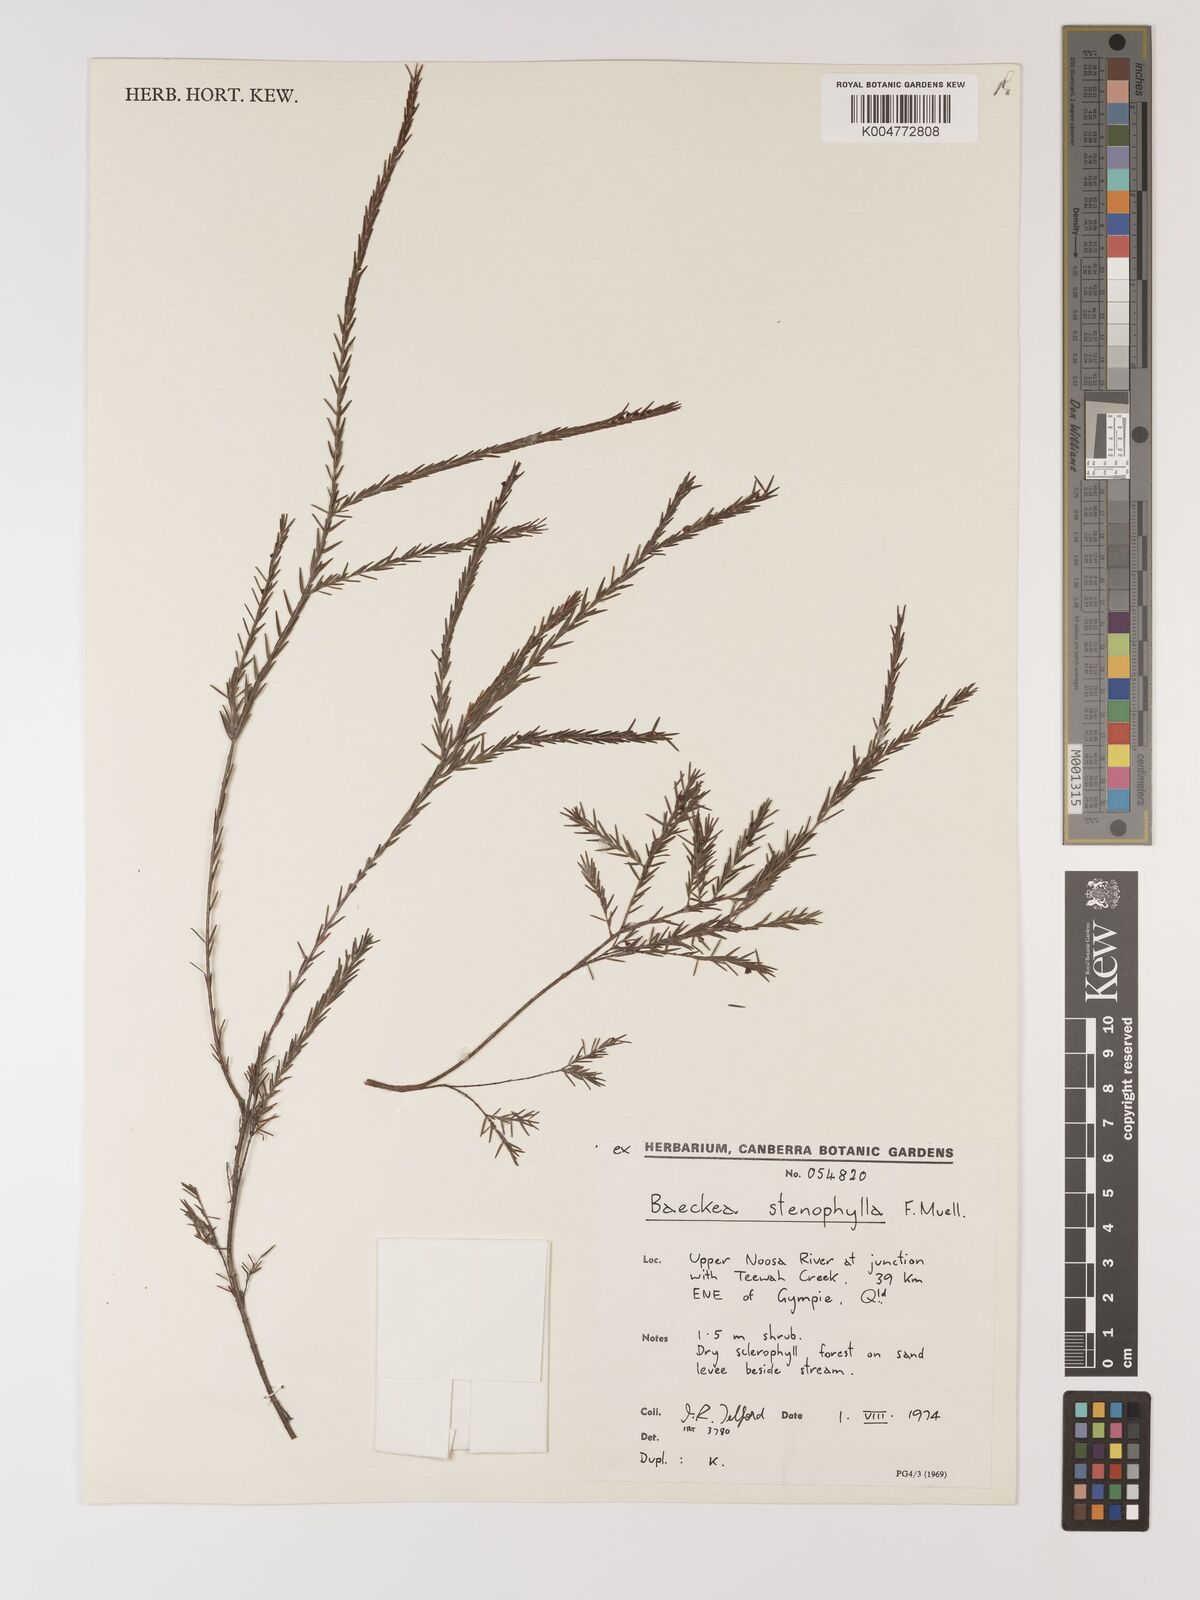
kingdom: Plantae
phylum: Tracheophyta
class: Magnoliopsida
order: Myrtales
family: Myrtaceae
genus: Baeckea
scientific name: Baeckea frutescens
